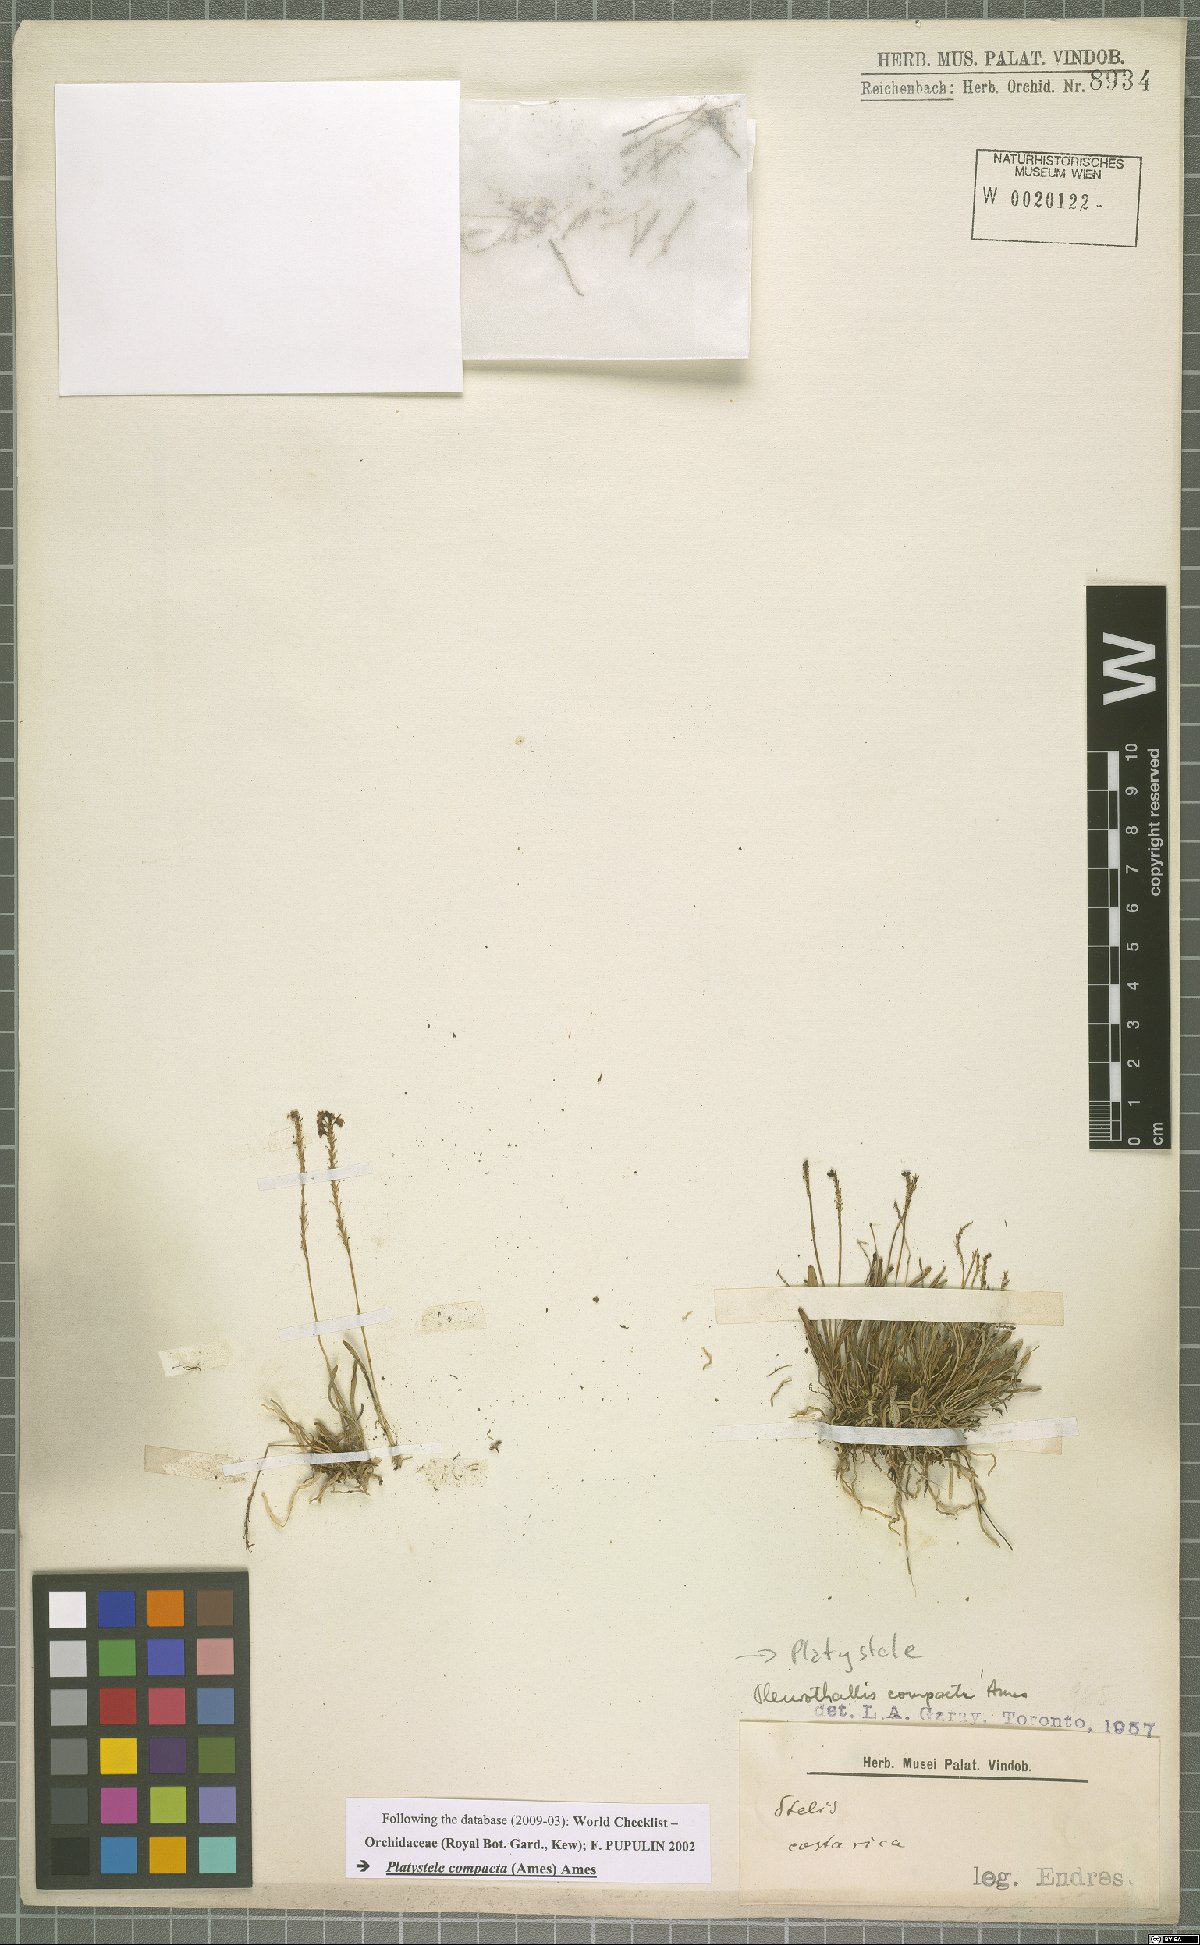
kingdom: Plantae
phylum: Tracheophyta
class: Liliopsida
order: Asparagales
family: Orchidaceae
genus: Platystele
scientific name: Platystele compacta
